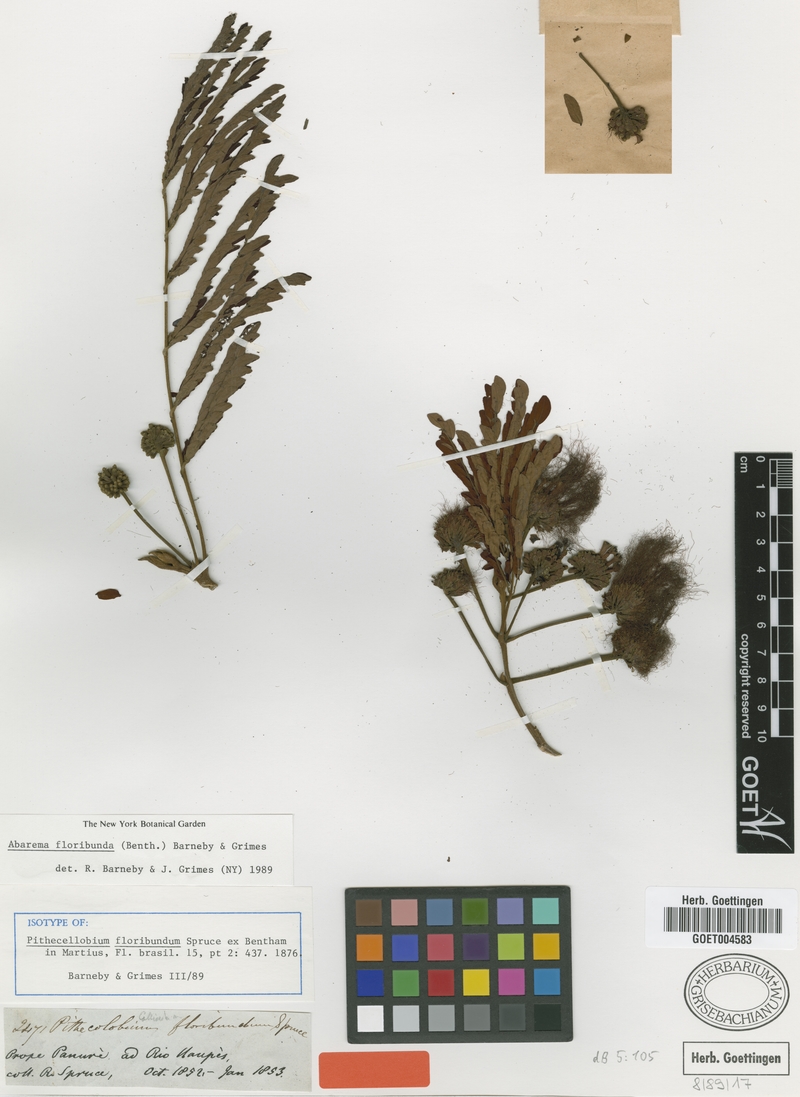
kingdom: Plantae
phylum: Tracheophyta
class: Magnoliopsida
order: Fabales
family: Fabaceae
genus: Jupunba
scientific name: Jupunba floribunda
